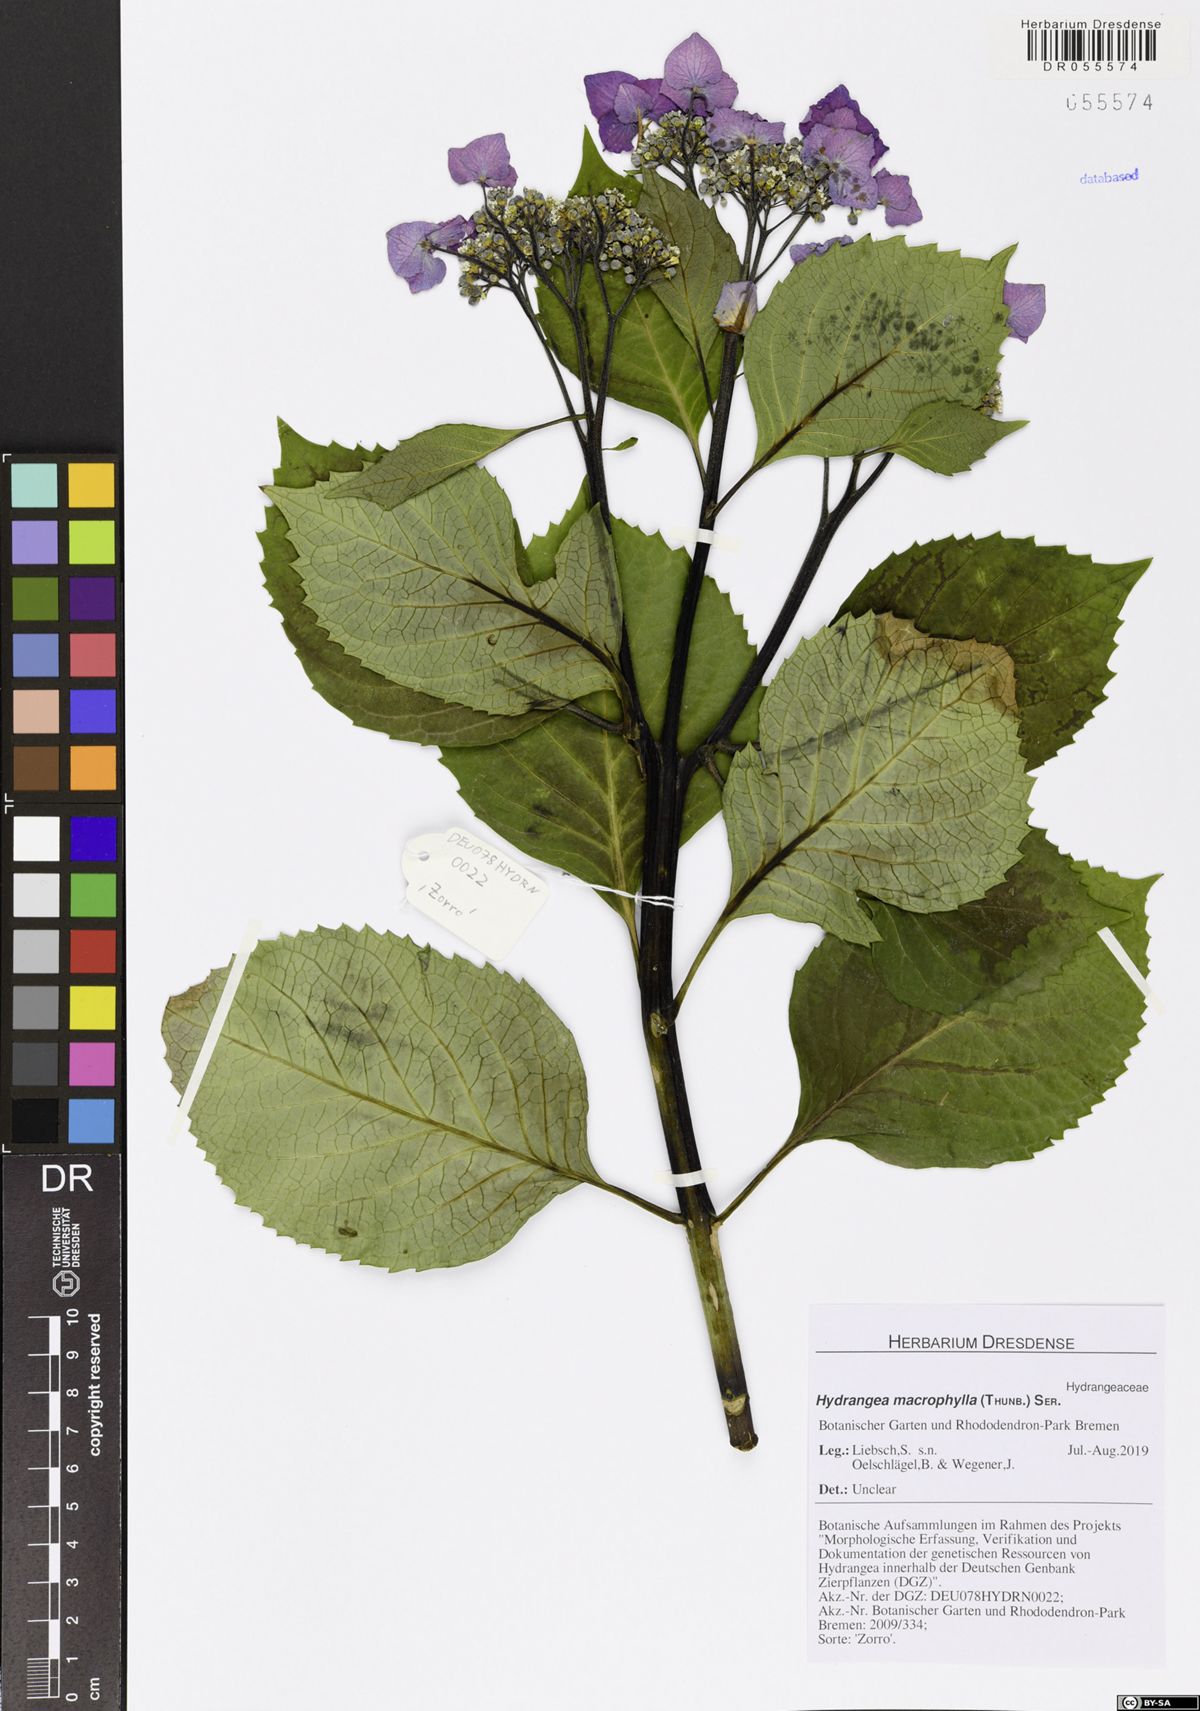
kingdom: Plantae
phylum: Tracheophyta
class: Magnoliopsida
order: Cornales
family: Hydrangeaceae
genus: Hydrangea
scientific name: Hydrangea macrophylla
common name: Hydrangea
